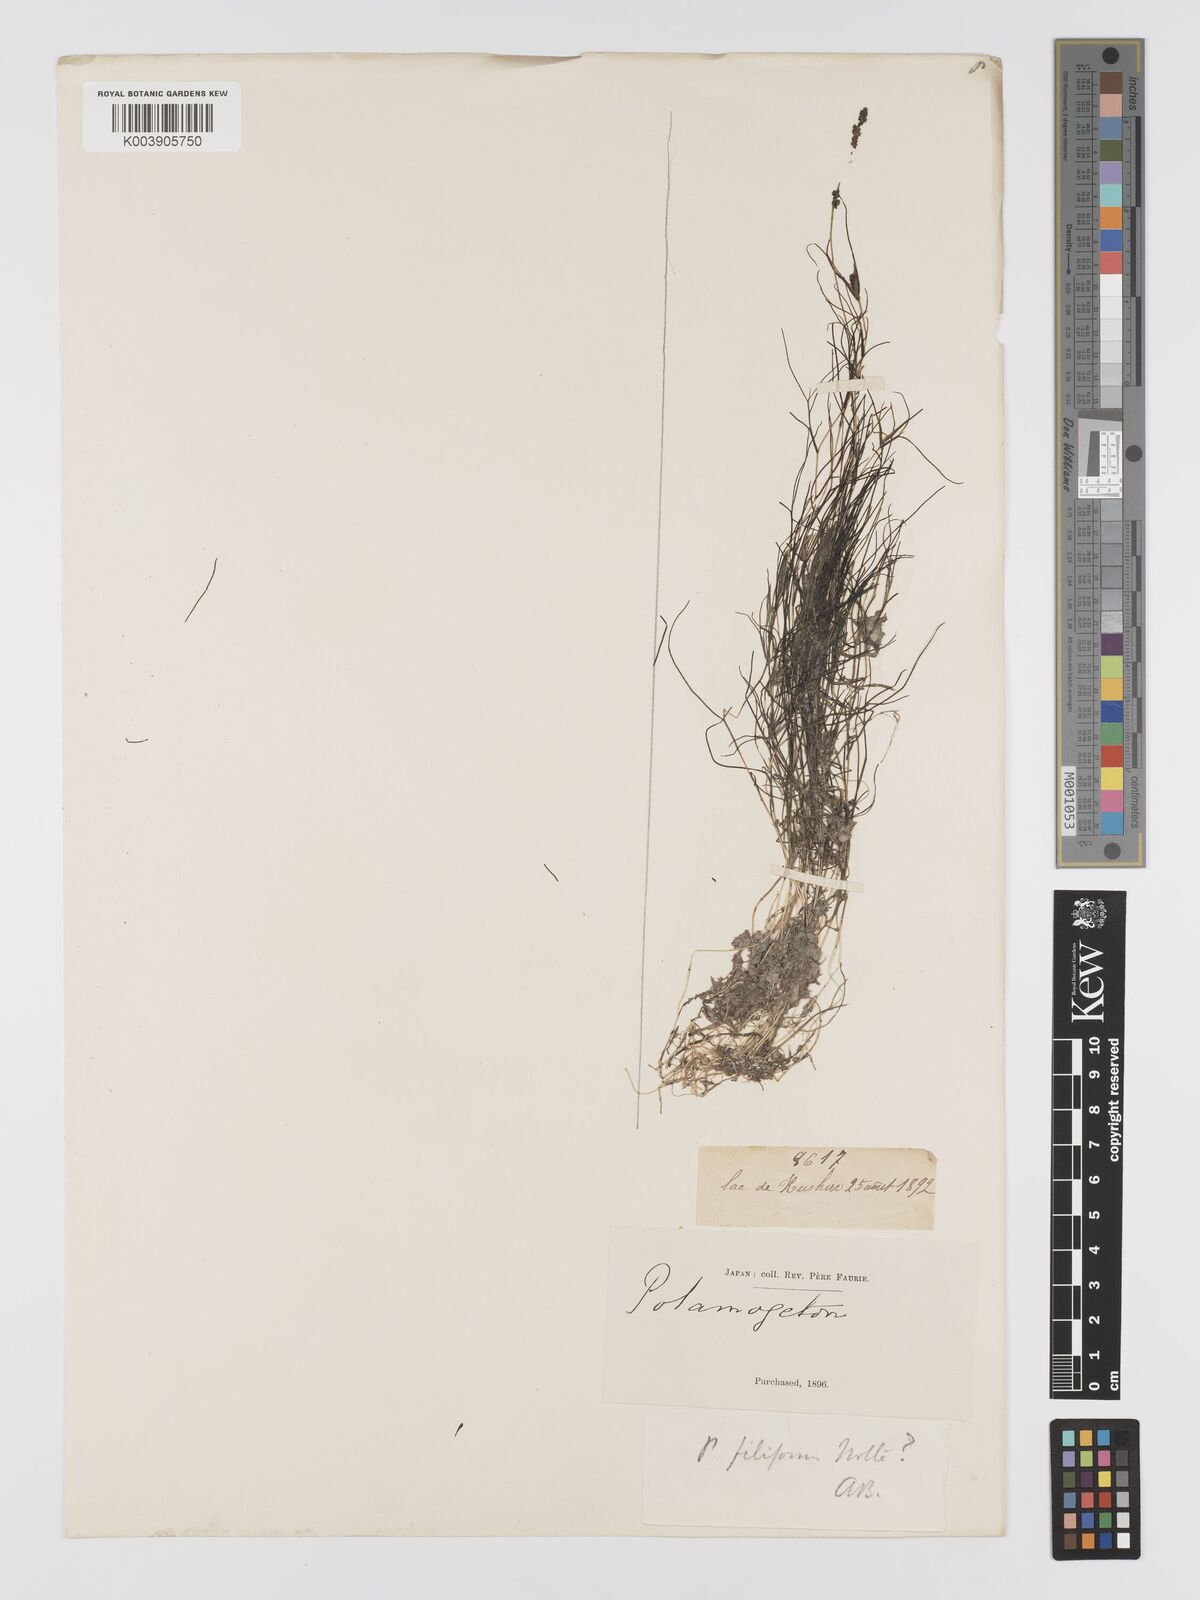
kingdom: Plantae
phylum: Tracheophyta
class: Liliopsida
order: Alismatales
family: Potamogetonaceae
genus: Potamogeton
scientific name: Potamogeton filiformis
